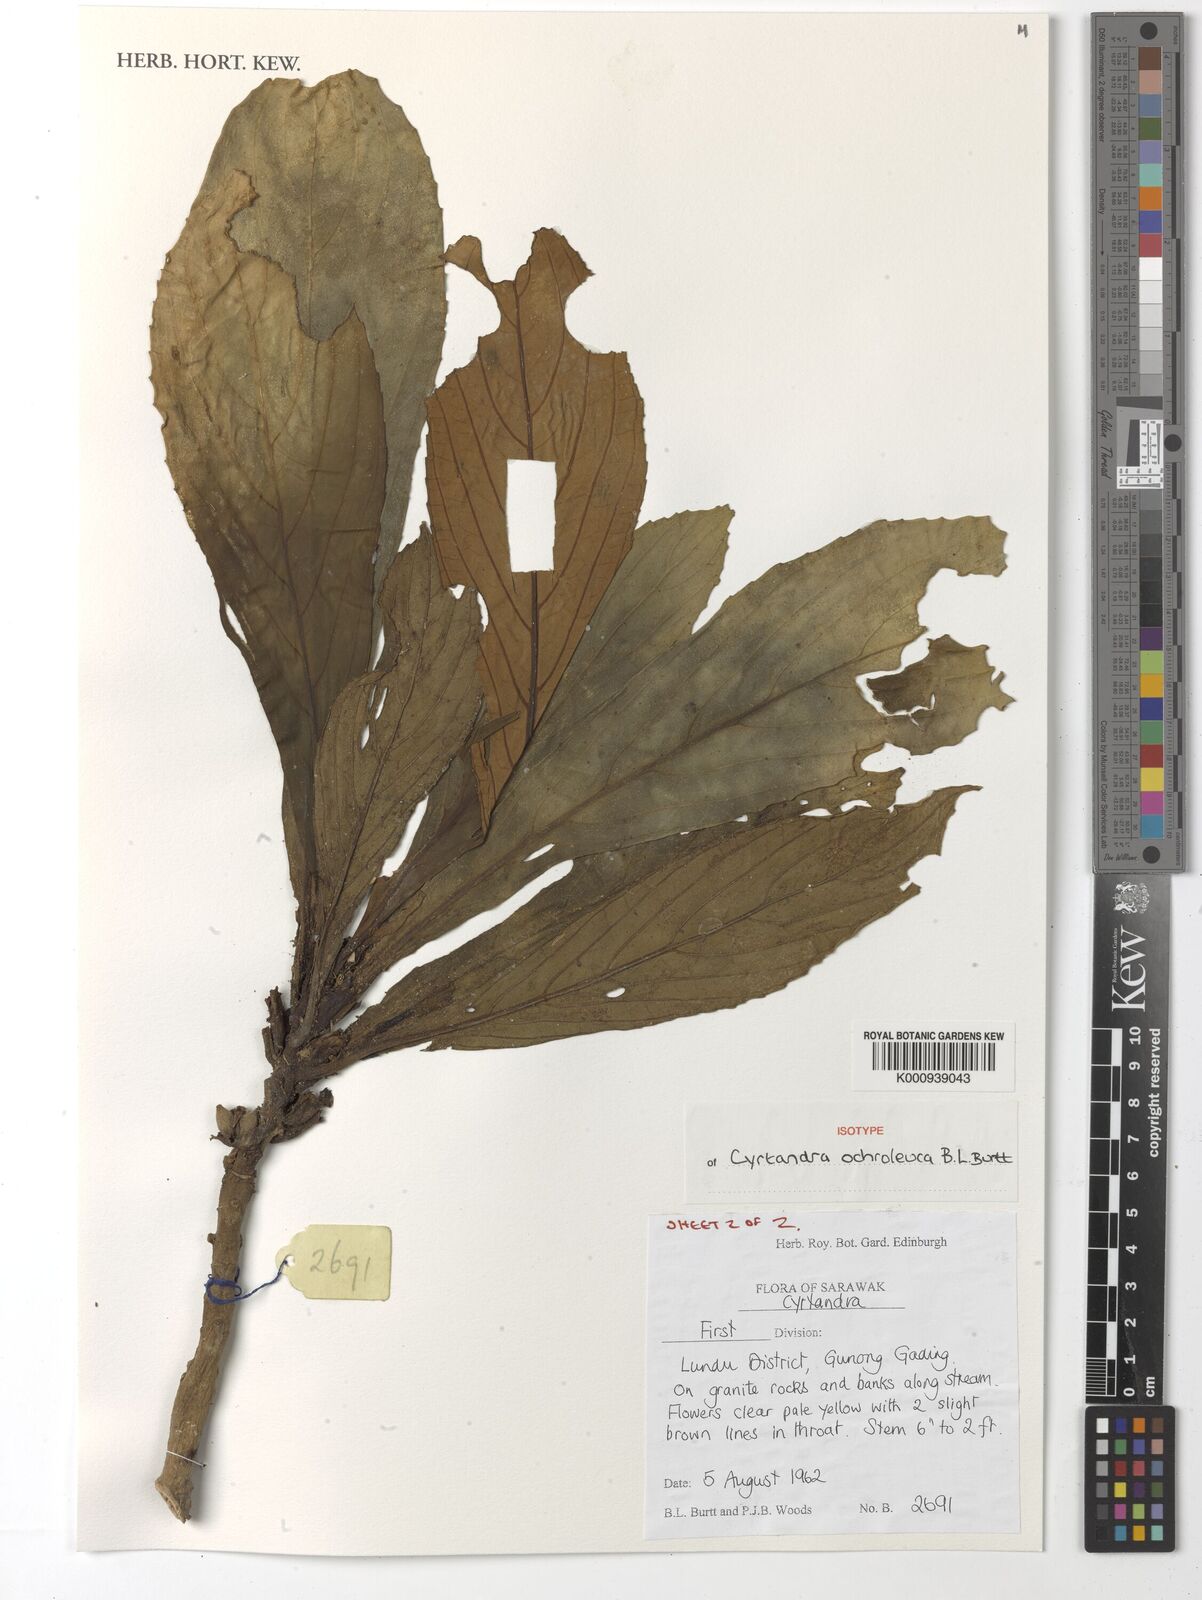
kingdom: Plantae
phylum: Tracheophyta
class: Magnoliopsida
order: Lamiales
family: Gesneriaceae
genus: Cyrtandra
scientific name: Cyrtandra ochroleuca
